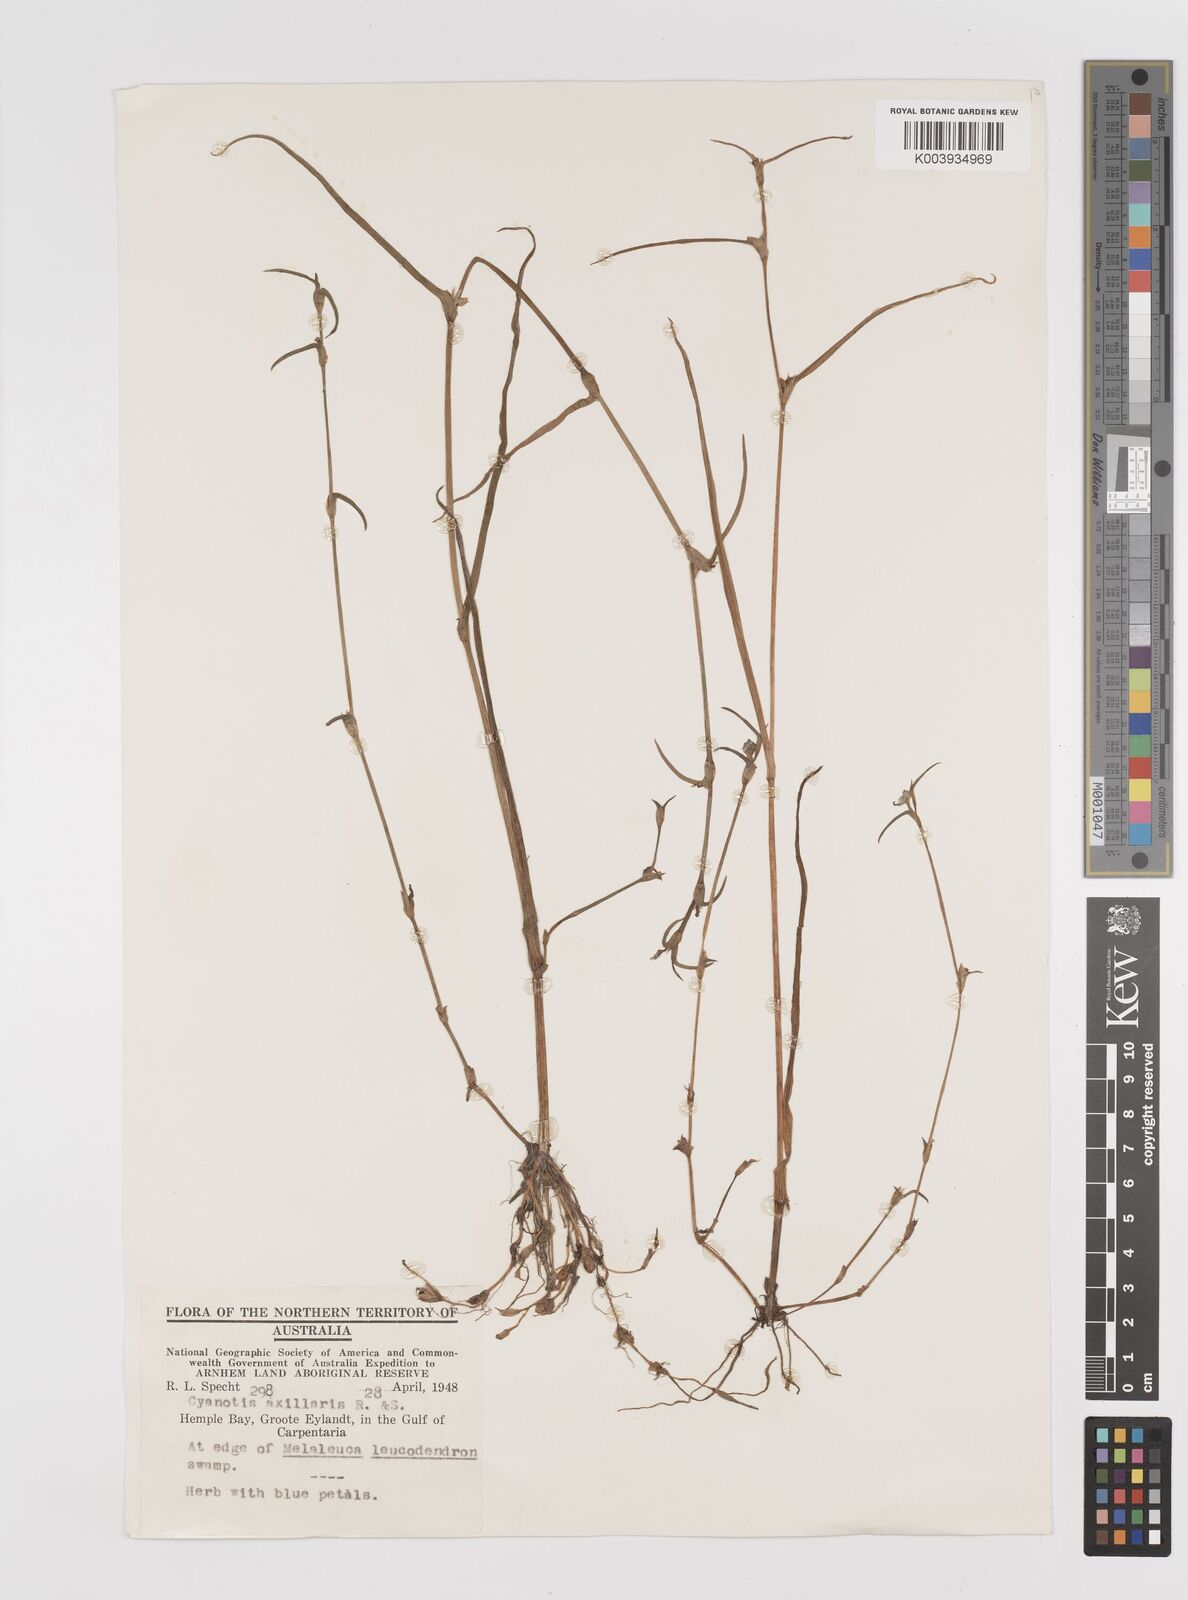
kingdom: Plantae
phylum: Tracheophyta
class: Liliopsida
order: Commelinales
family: Commelinaceae
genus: Cyanotis
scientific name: Cyanotis axillaris
